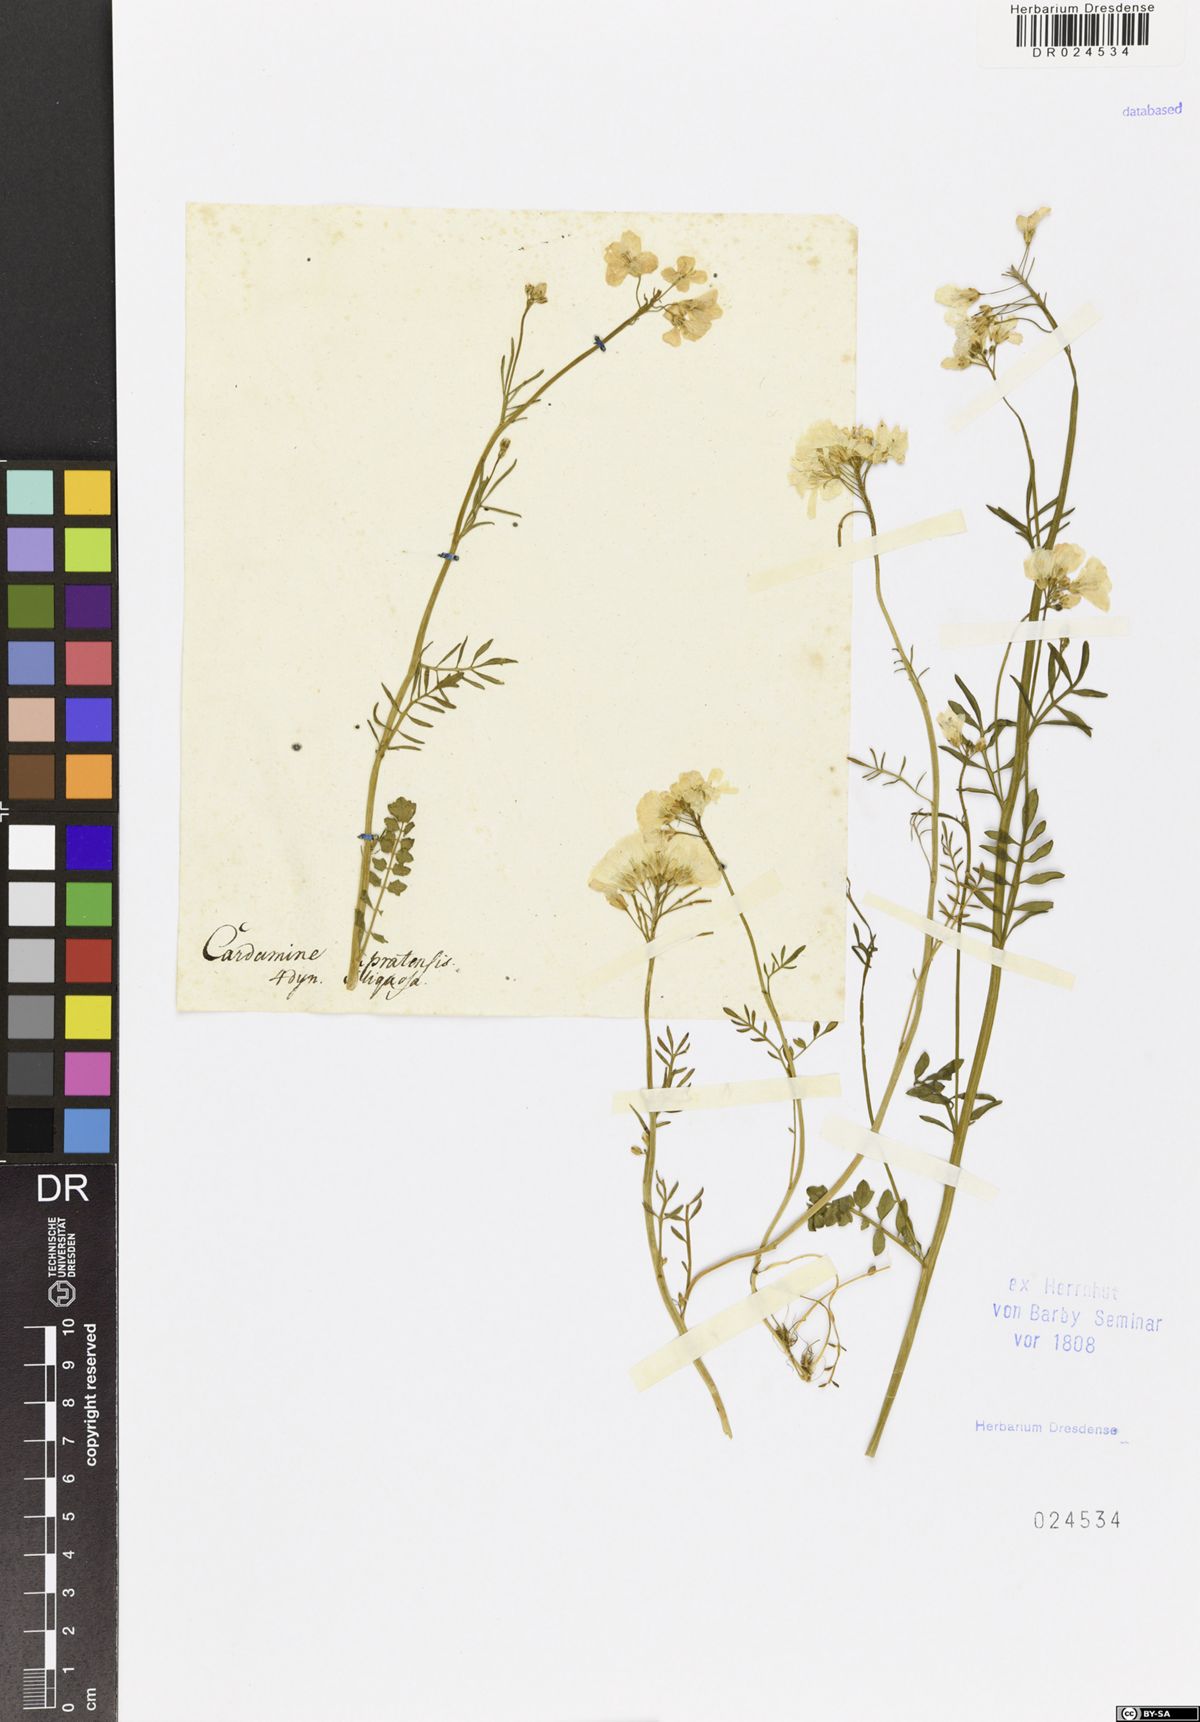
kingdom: Plantae
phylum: Tracheophyta
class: Magnoliopsida
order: Brassicales
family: Brassicaceae
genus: Cardamine
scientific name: Cardamine pratensis
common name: Cuckoo flower
